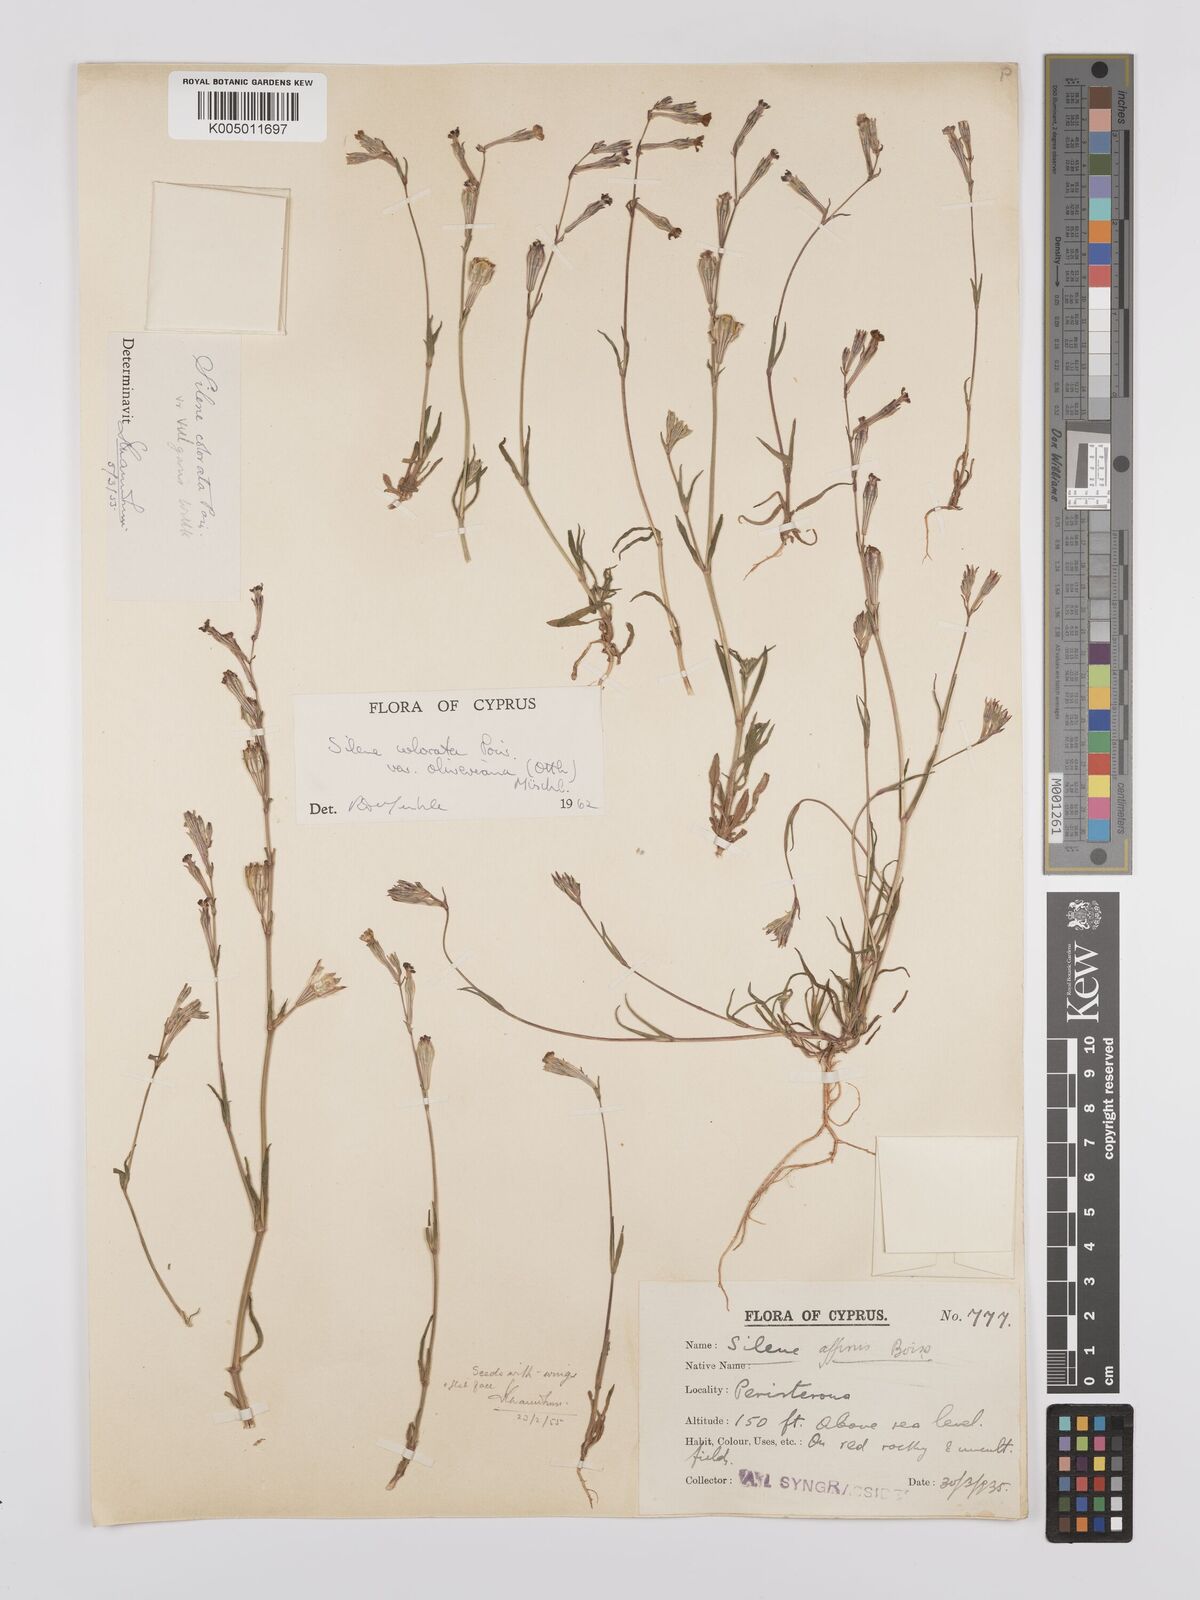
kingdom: Plantae
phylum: Tracheophyta
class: Magnoliopsida
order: Caryophyllales
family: Caryophyllaceae
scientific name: Caryophyllaceae
